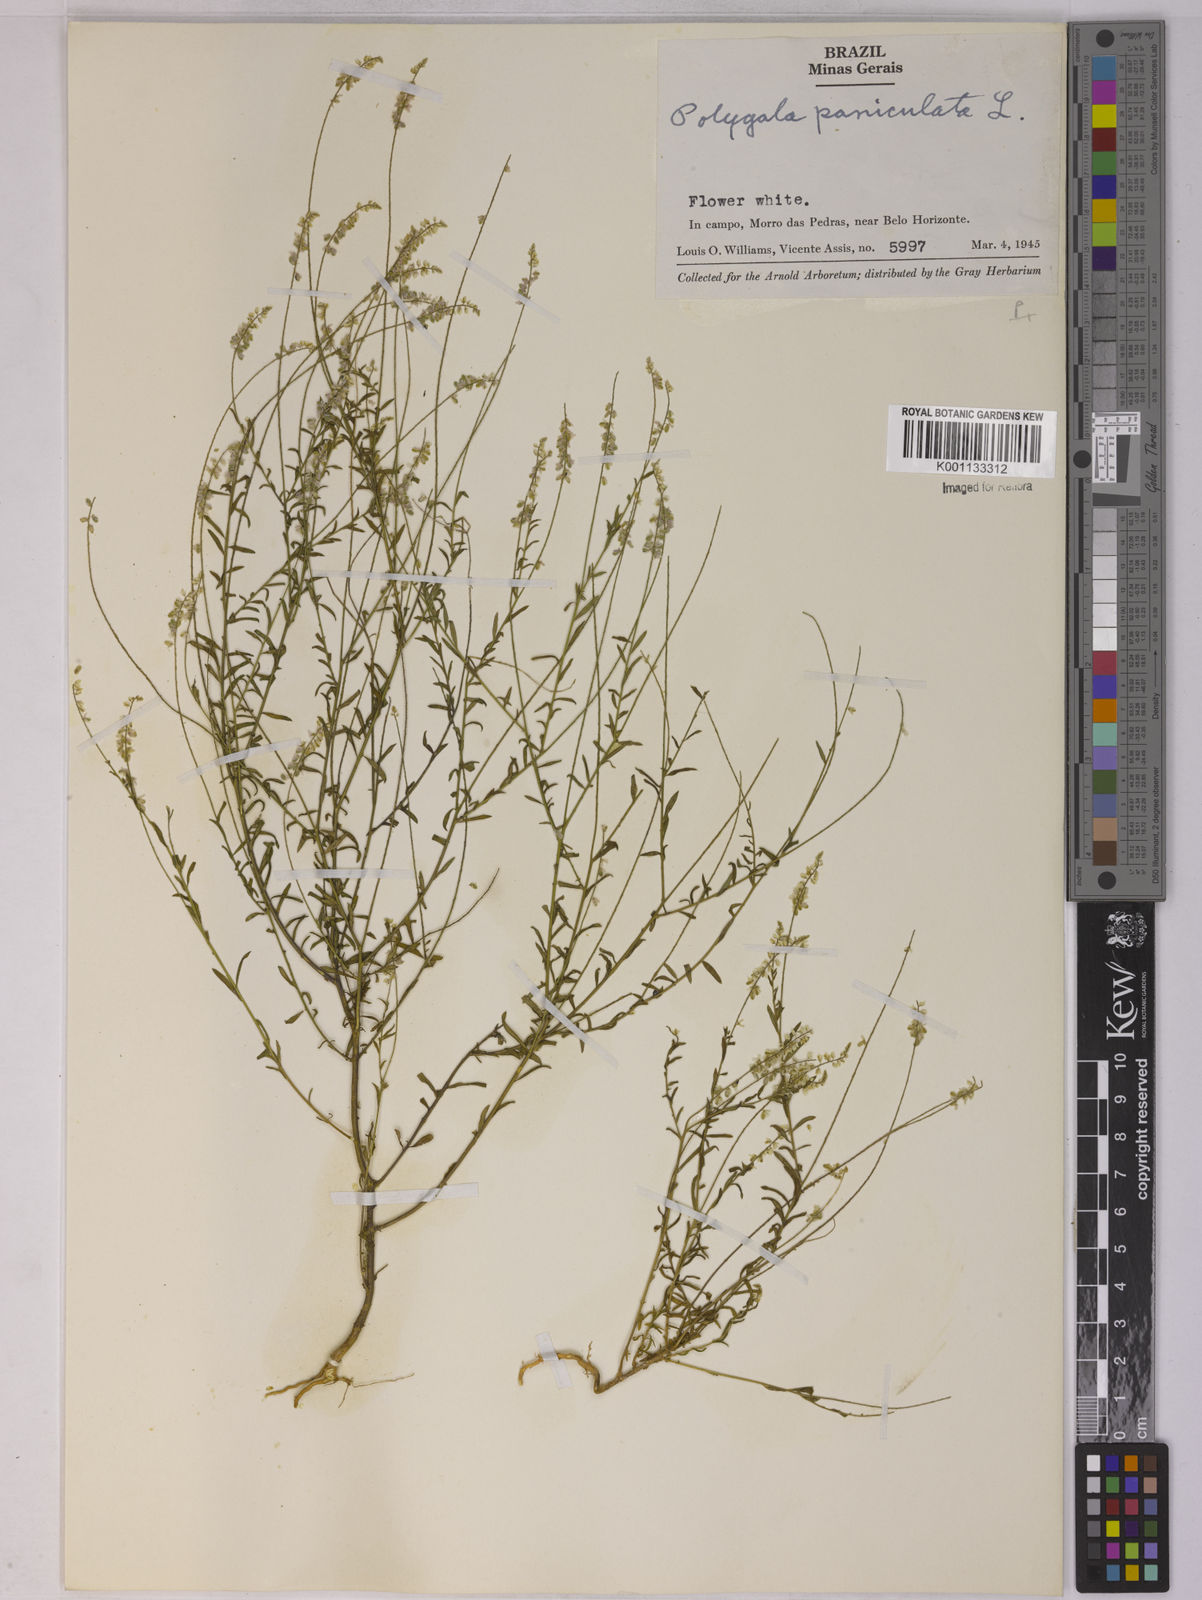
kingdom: Plantae
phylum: Tracheophyta
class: Magnoliopsida
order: Fabales
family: Polygalaceae
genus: Polygala
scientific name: Polygala paniculata
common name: Orosne
